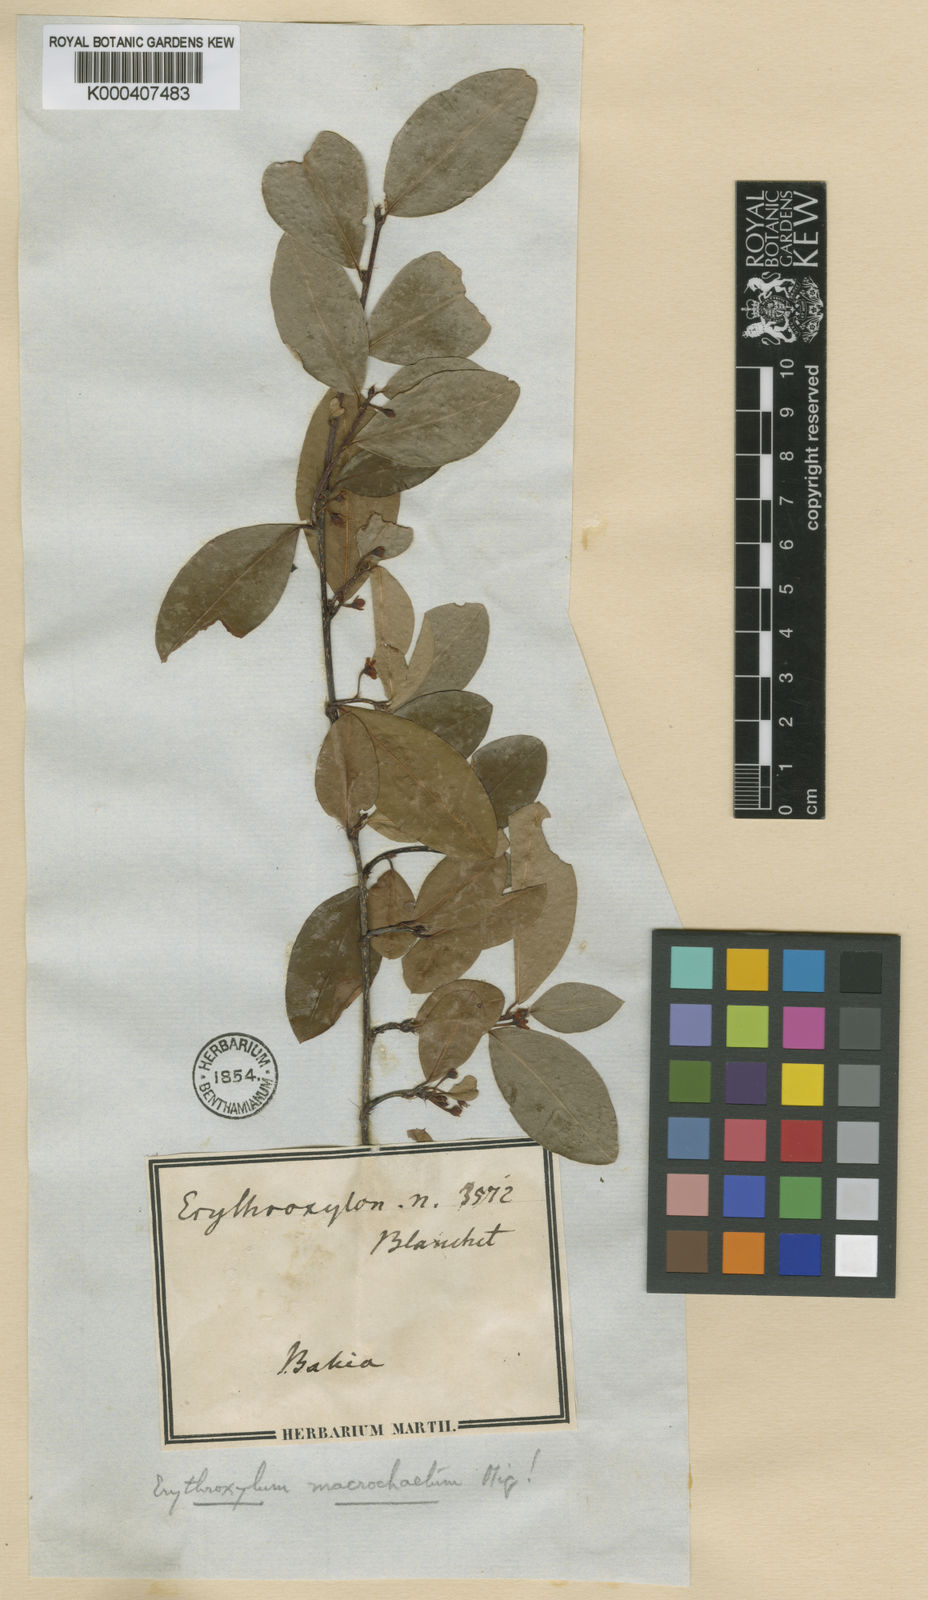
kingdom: Plantae
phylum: Tracheophyta
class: Magnoliopsida
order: Malpighiales
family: Erythroxylaceae
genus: Erythroxylum
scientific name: Erythroxylum macrochaetum
